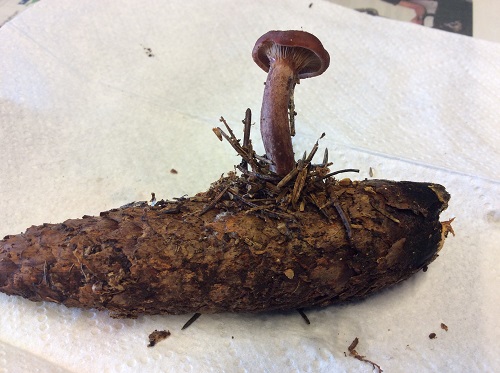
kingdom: Fungi
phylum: Basidiomycota
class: Agaricomycetes
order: Russulales
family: Russulaceae
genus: Lactarius
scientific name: Lactarius camphoratus
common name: kamfer-mælkehat
